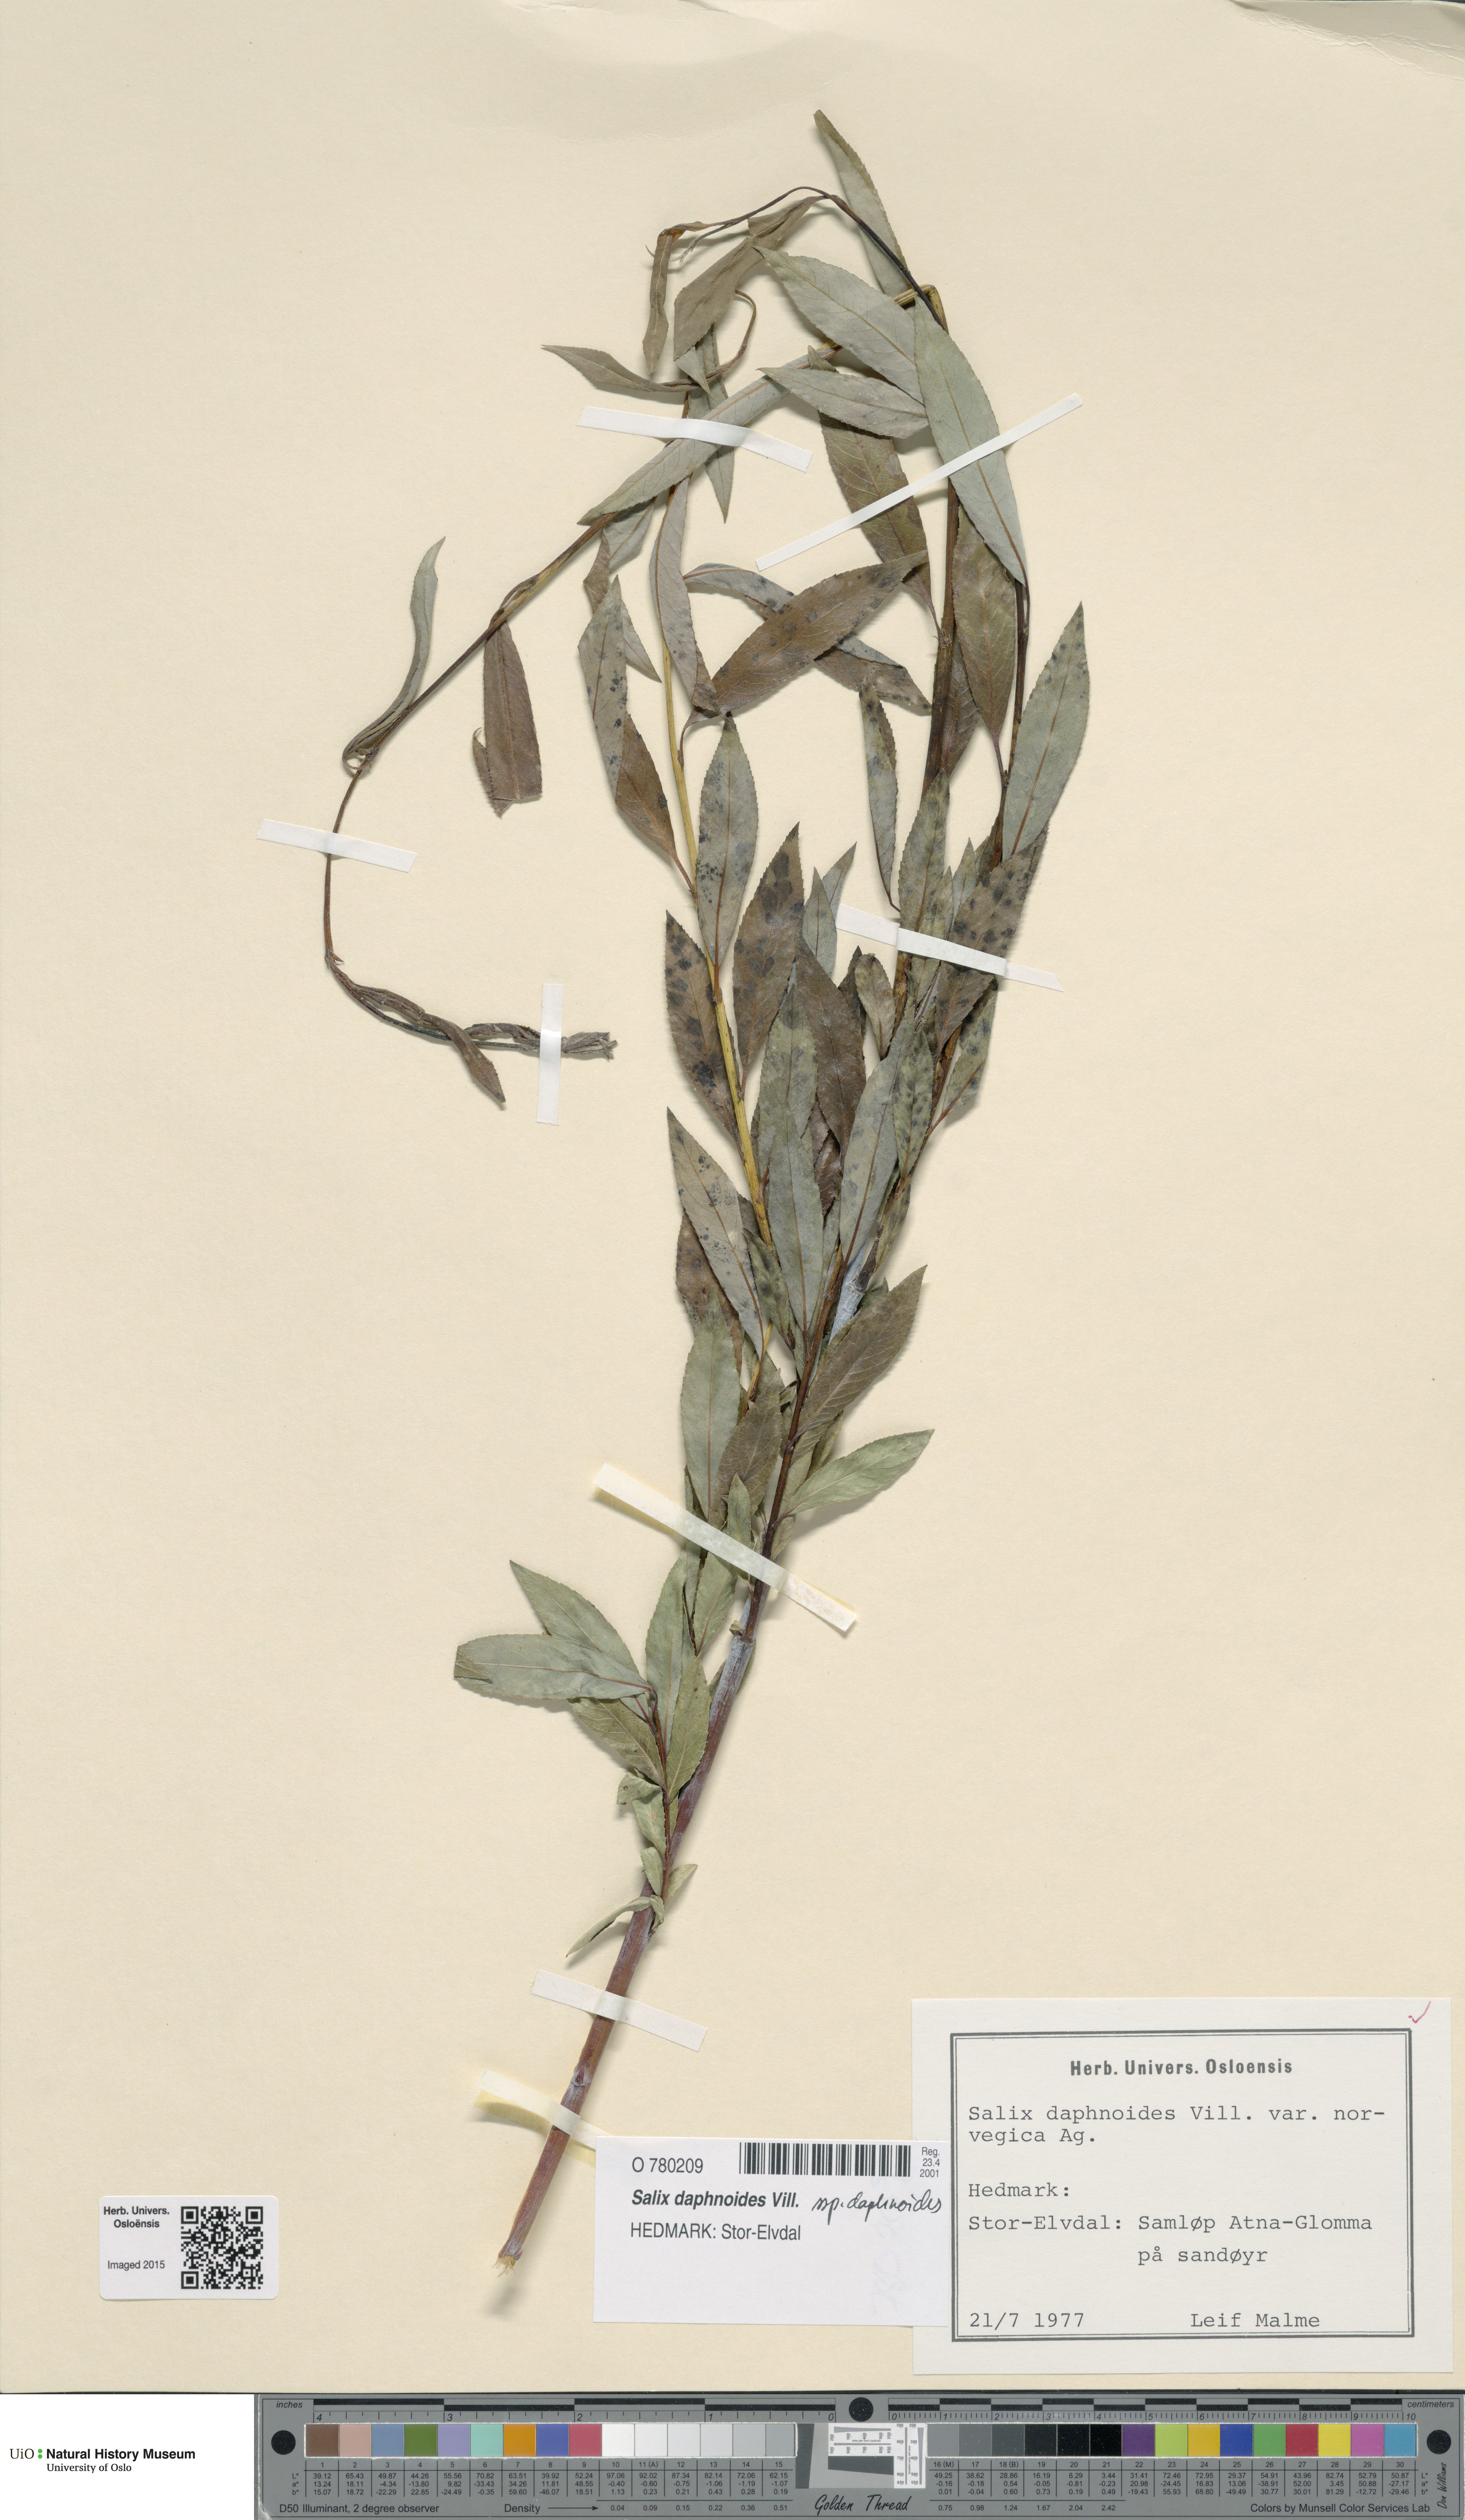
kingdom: Plantae
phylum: Tracheophyta
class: Magnoliopsida
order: Malpighiales
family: Salicaceae
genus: Salix
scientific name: Salix daphnoides
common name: European violet-willow
